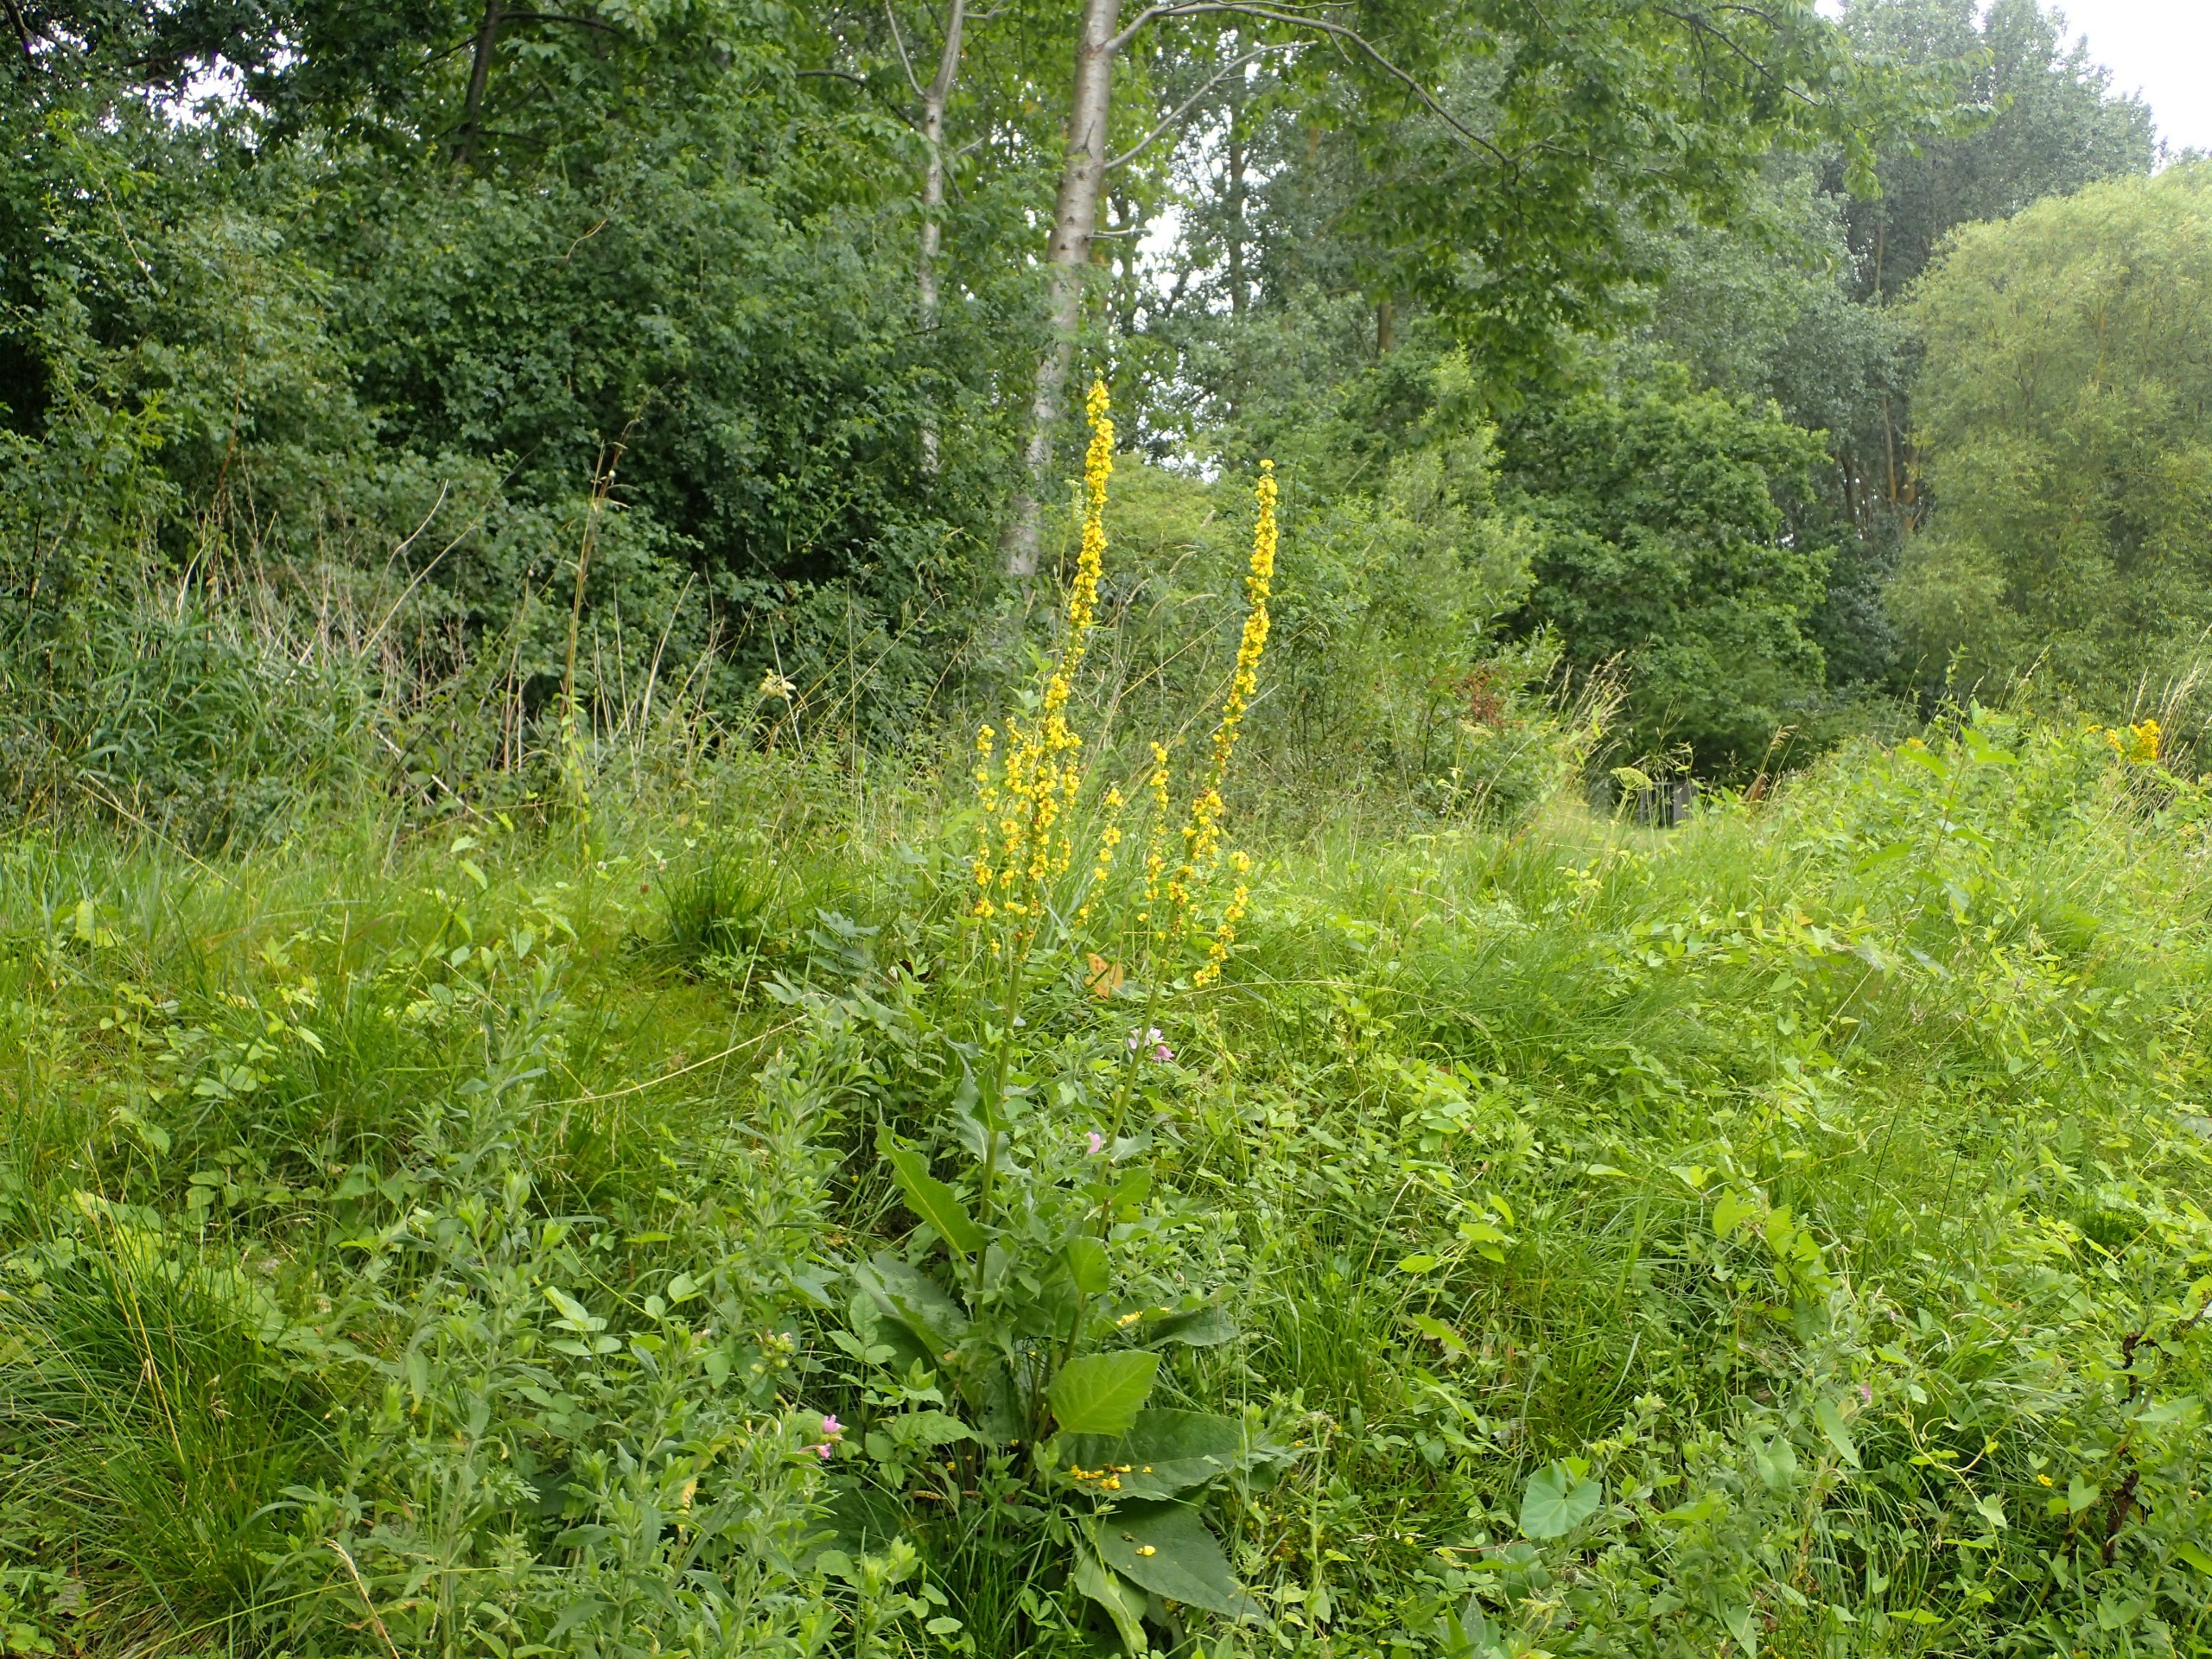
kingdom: Plantae
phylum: Tracheophyta
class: Magnoliopsida
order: Lamiales
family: Scrophulariaceae
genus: Verbascum
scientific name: Verbascum nigrum
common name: Mørk kongelys
